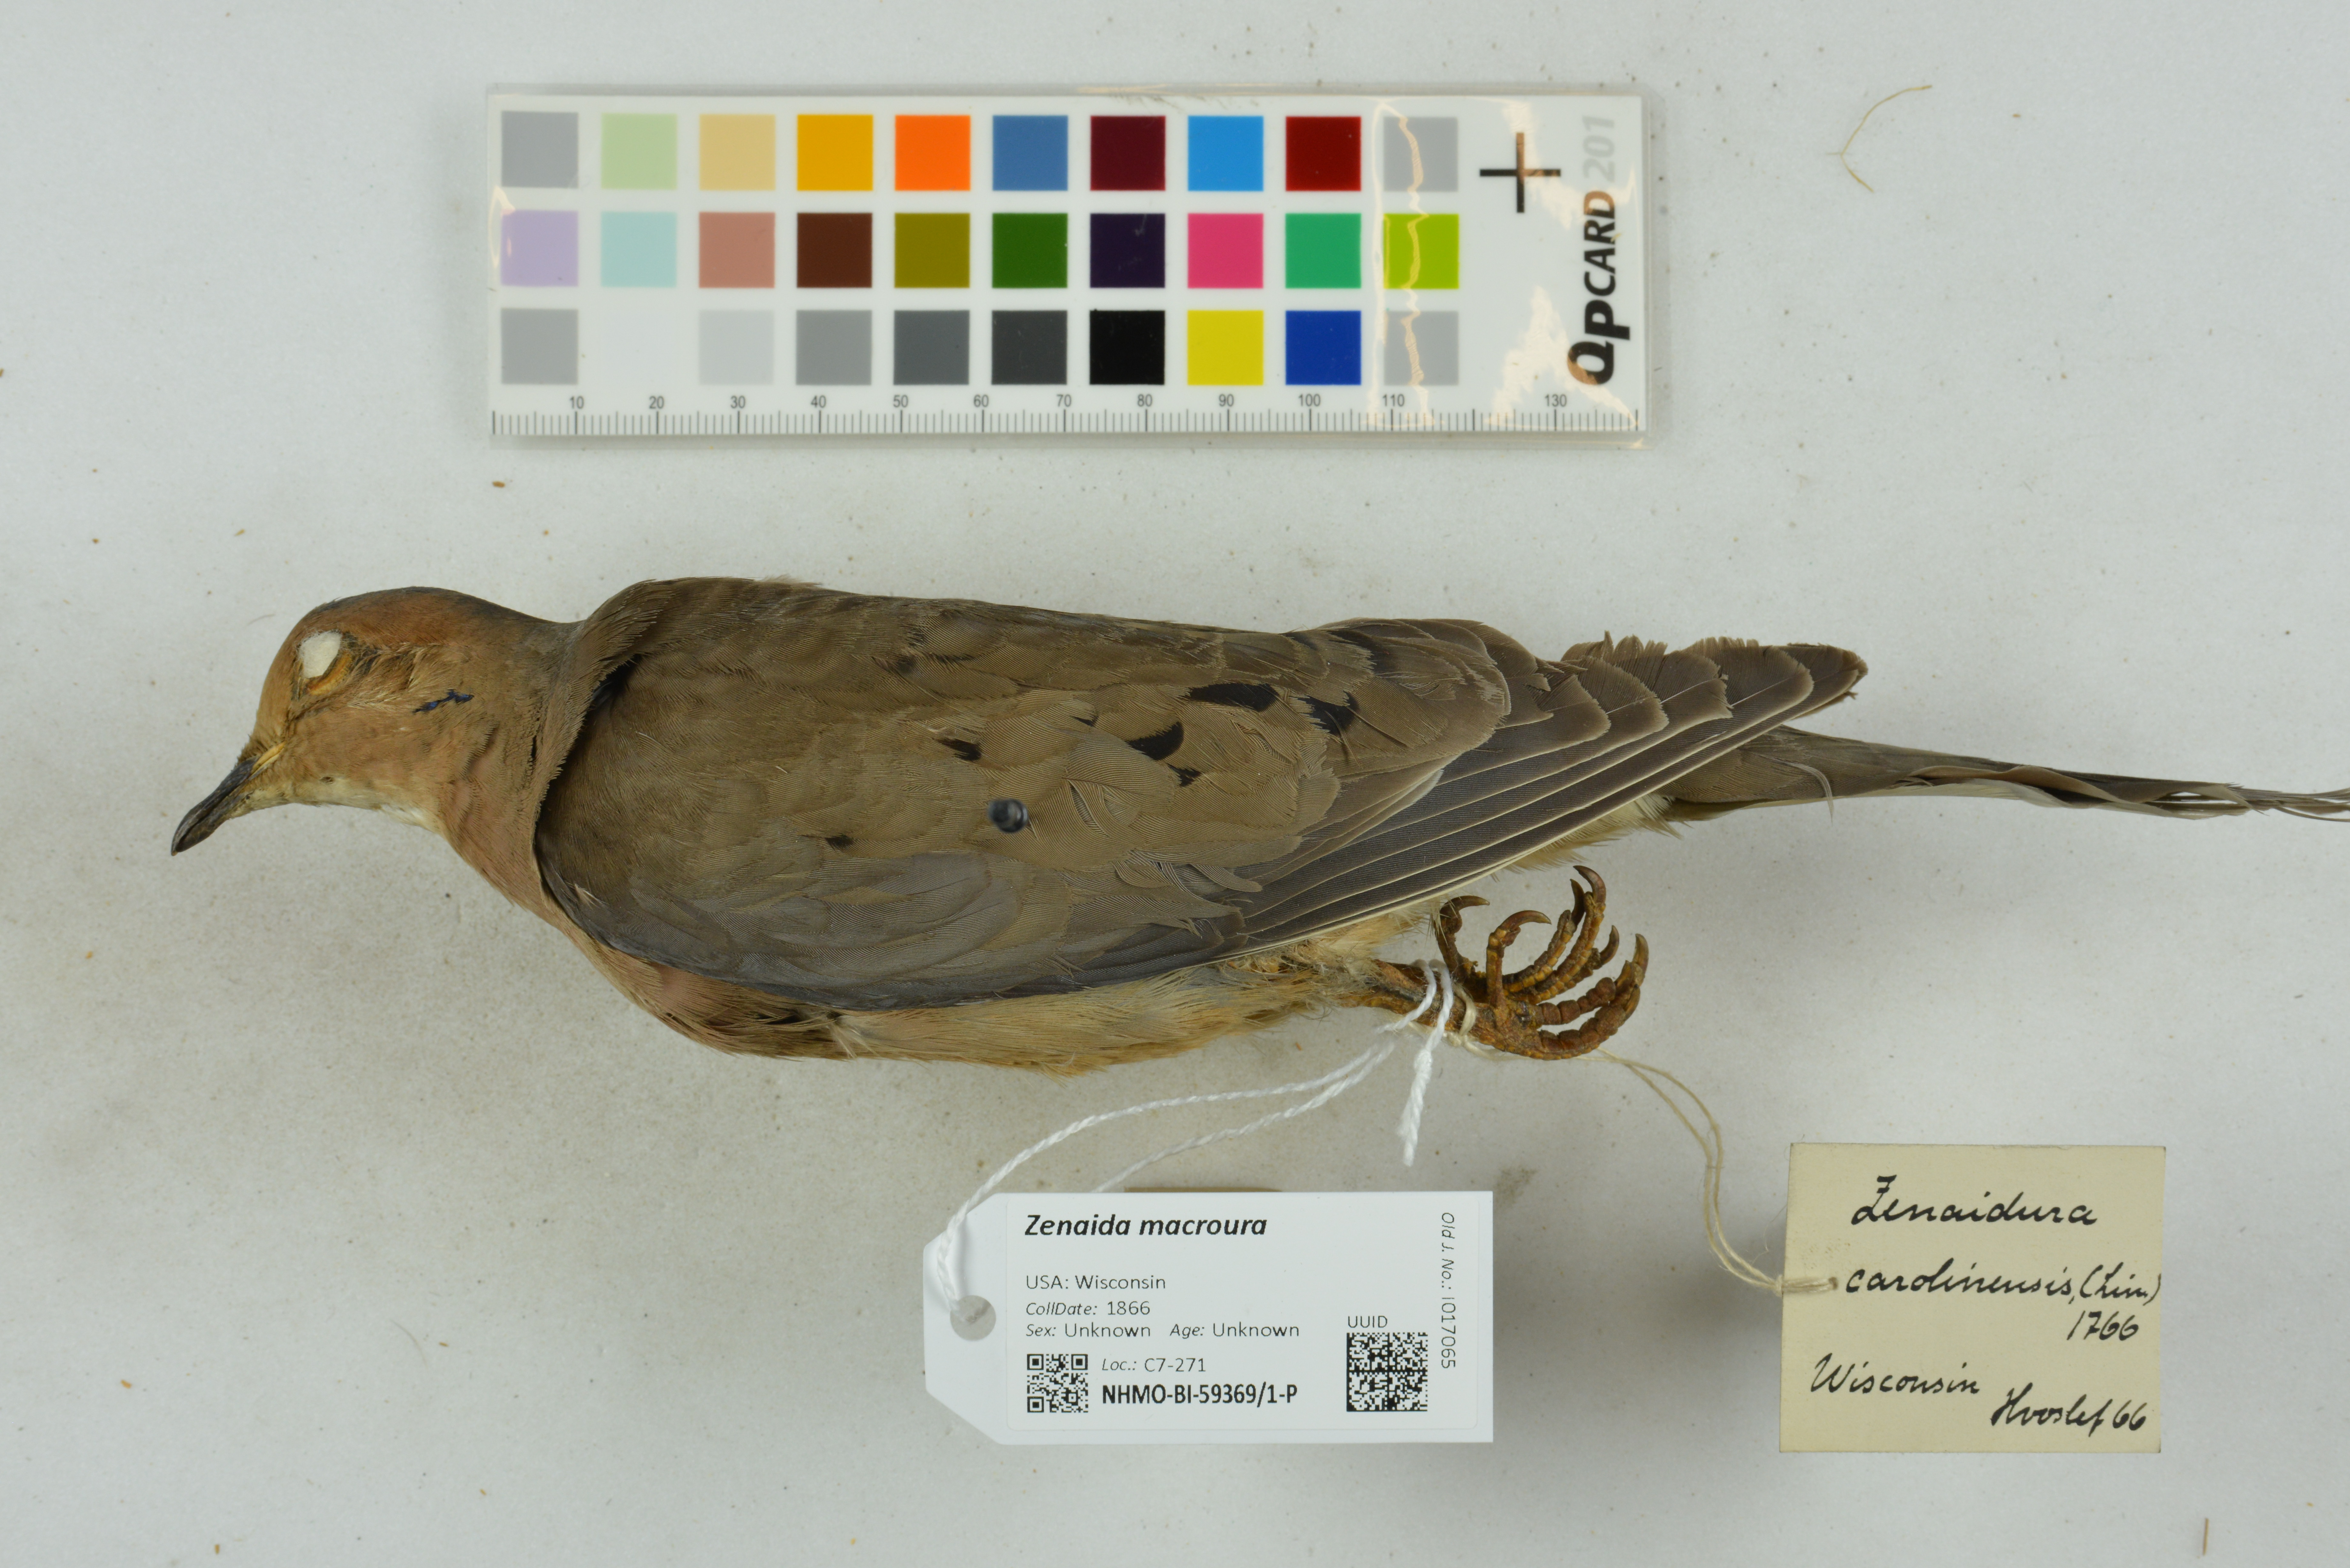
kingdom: Animalia
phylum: Chordata
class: Aves
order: Columbiformes
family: Columbidae
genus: Zenaida
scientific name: Zenaida macroura
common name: Mourning dove
